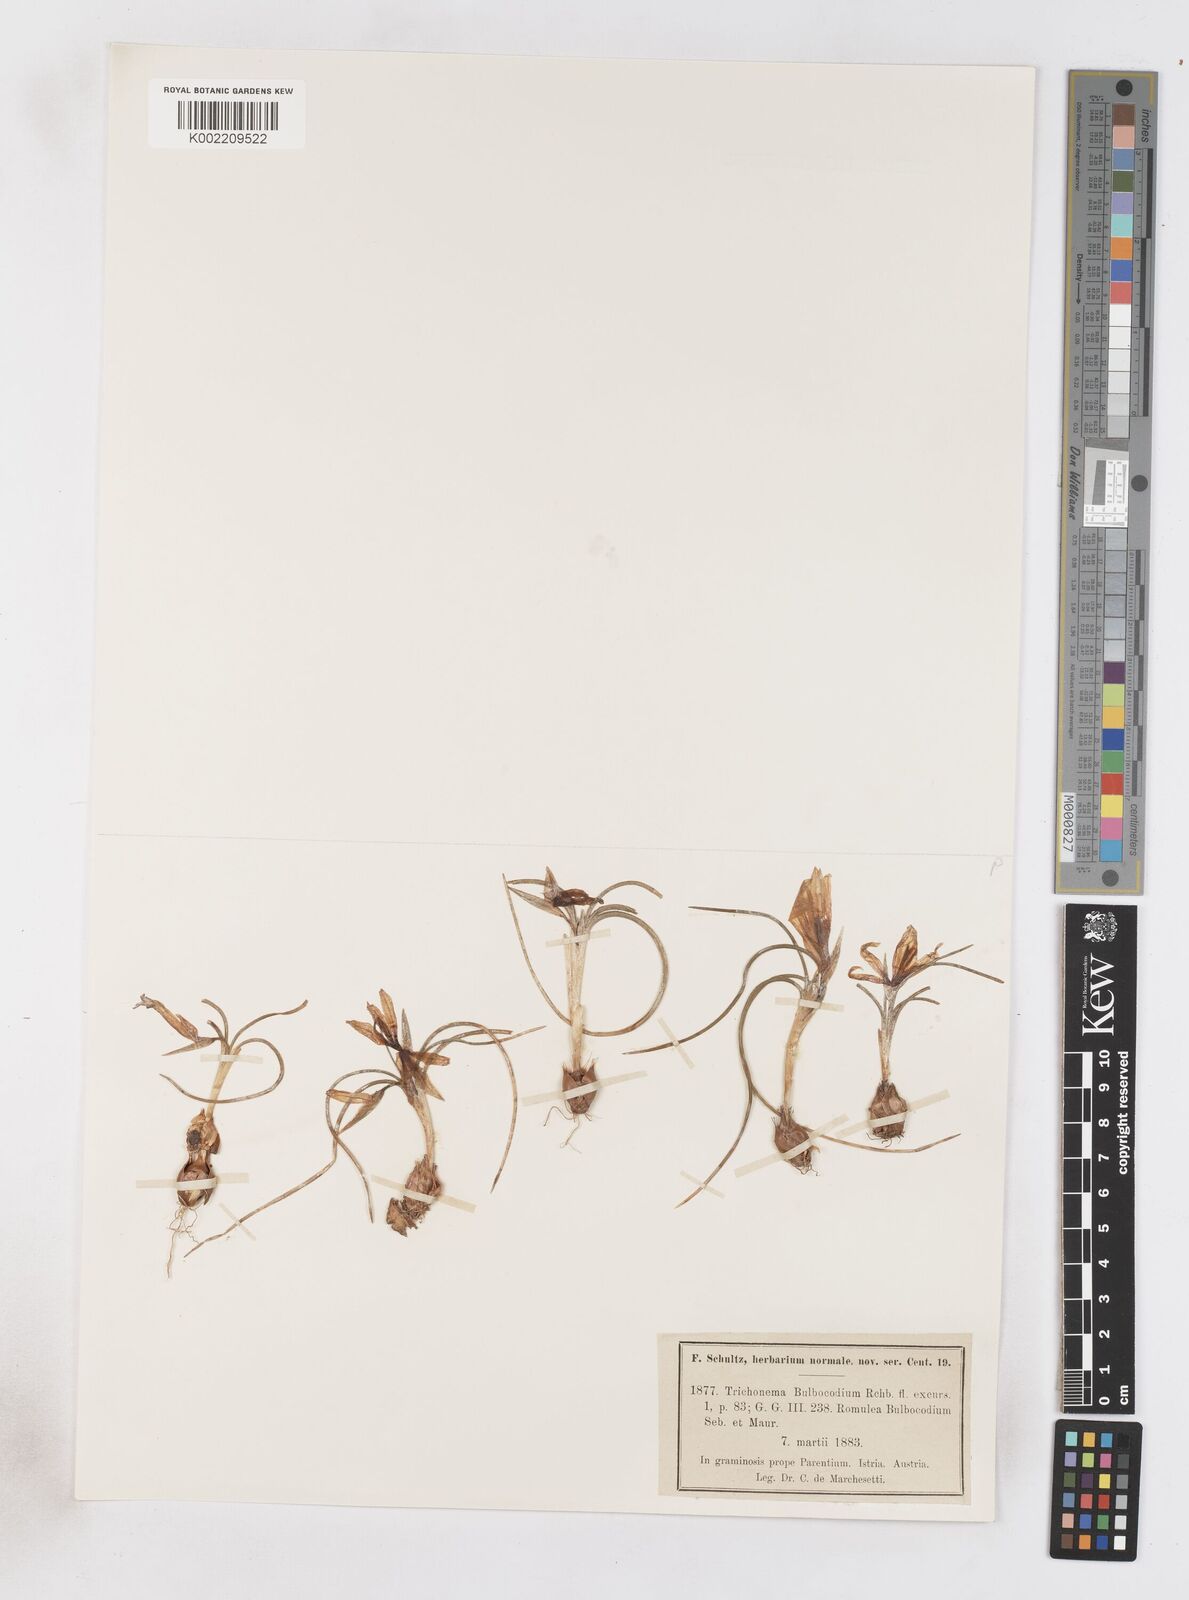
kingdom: Plantae
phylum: Tracheophyta
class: Liliopsida
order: Asparagales
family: Iridaceae
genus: Romulea
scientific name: Romulea bulbocodium
